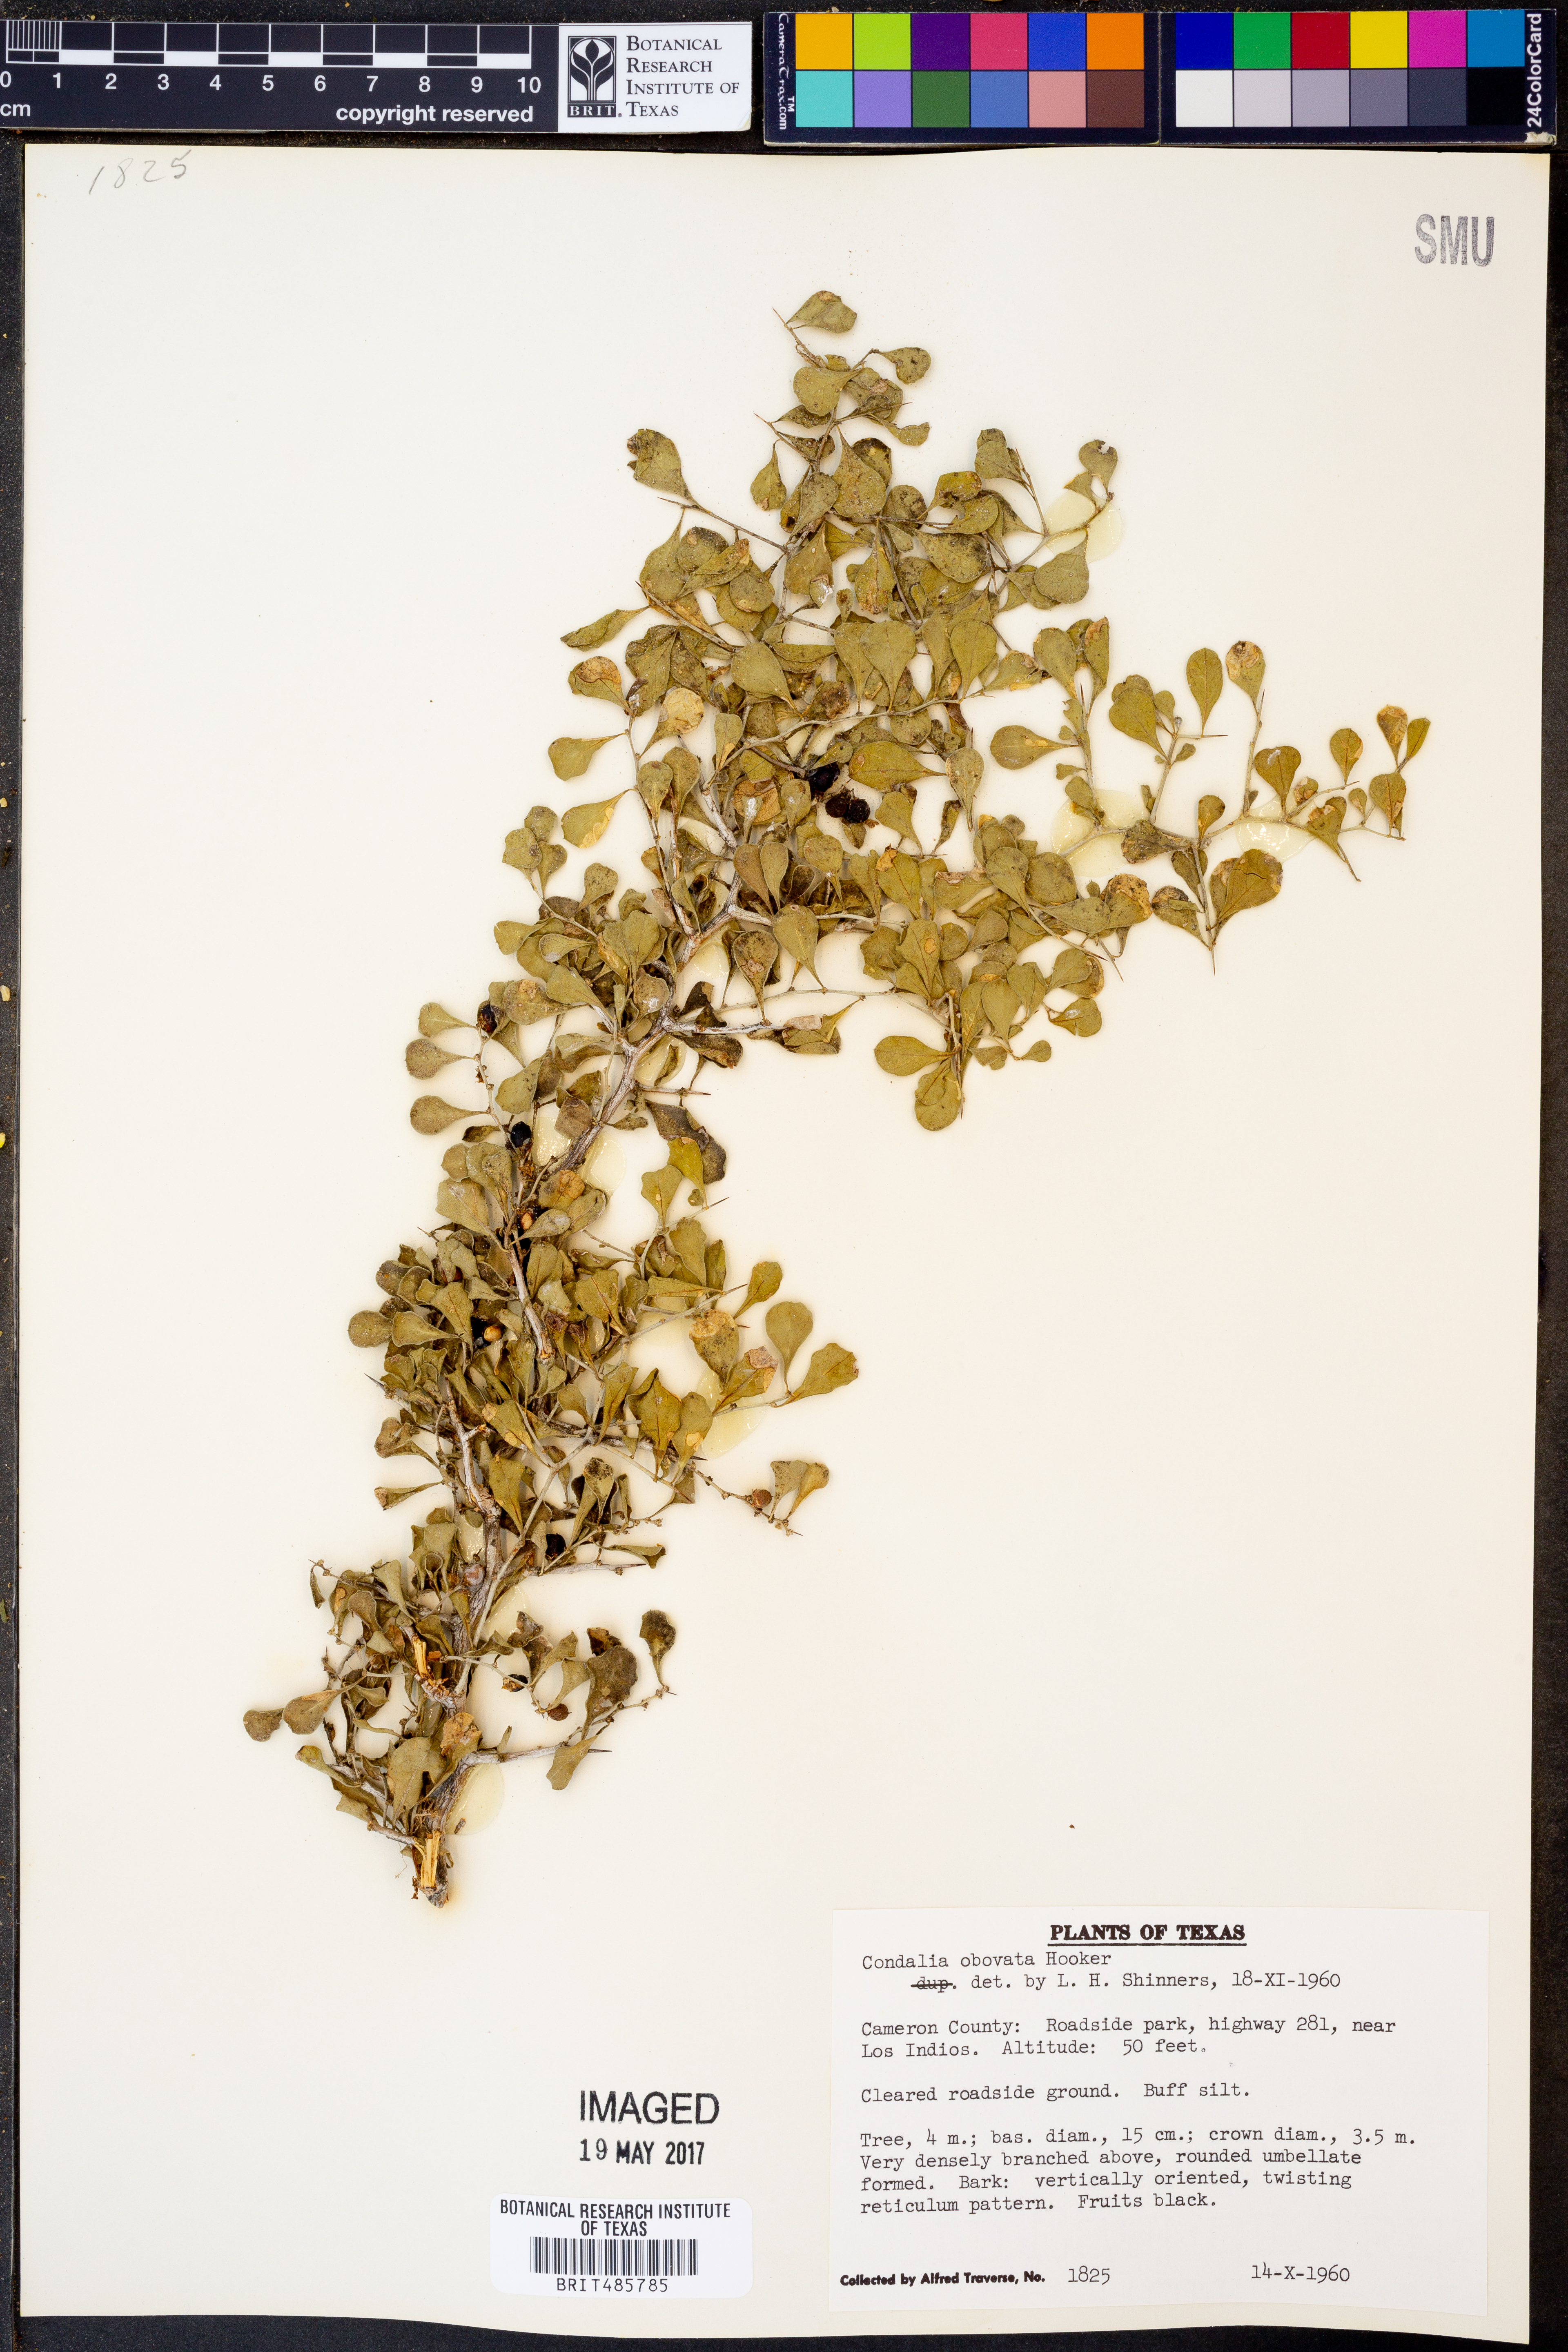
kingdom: Plantae
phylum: Tracheophyta
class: Magnoliopsida
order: Rosales
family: Rhamnaceae
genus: Condalia
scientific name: Condalia hookeri
